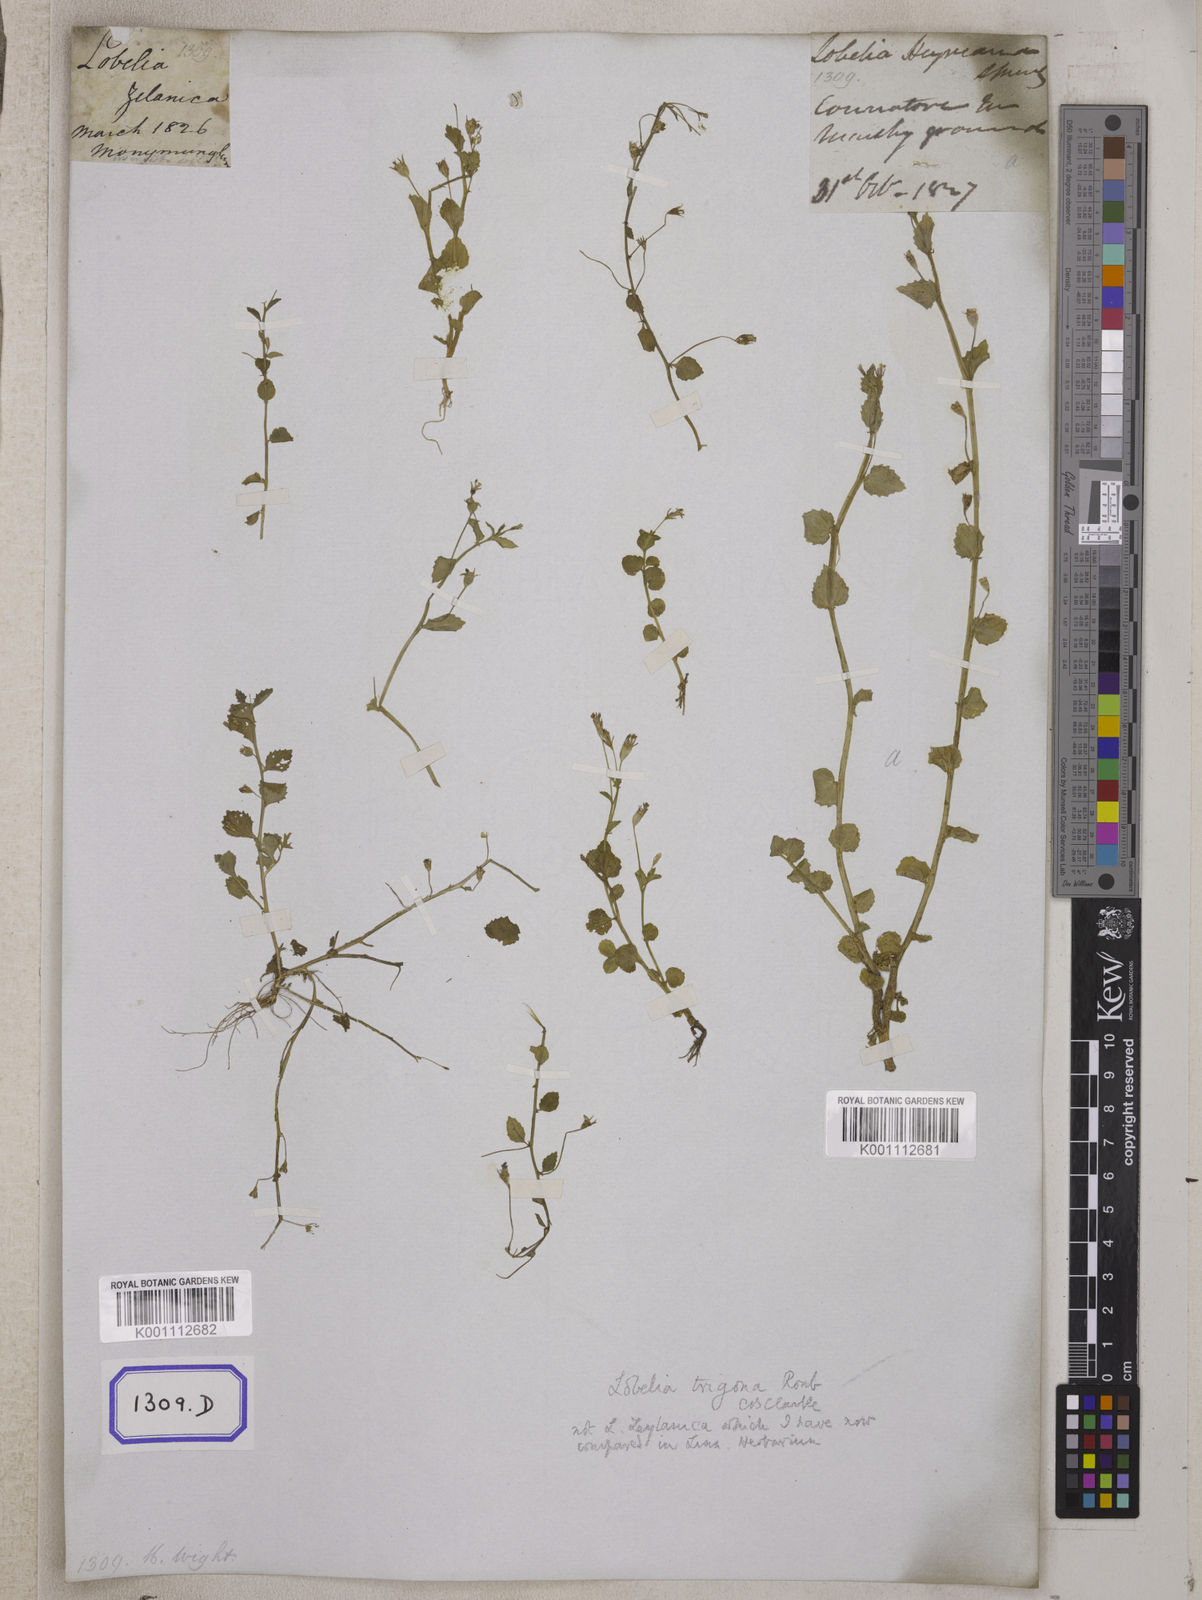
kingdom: Plantae
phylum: Tracheophyta
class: Magnoliopsida
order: Asterales
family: Campanulaceae
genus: Lobelia
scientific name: Lobelia alsinoides
